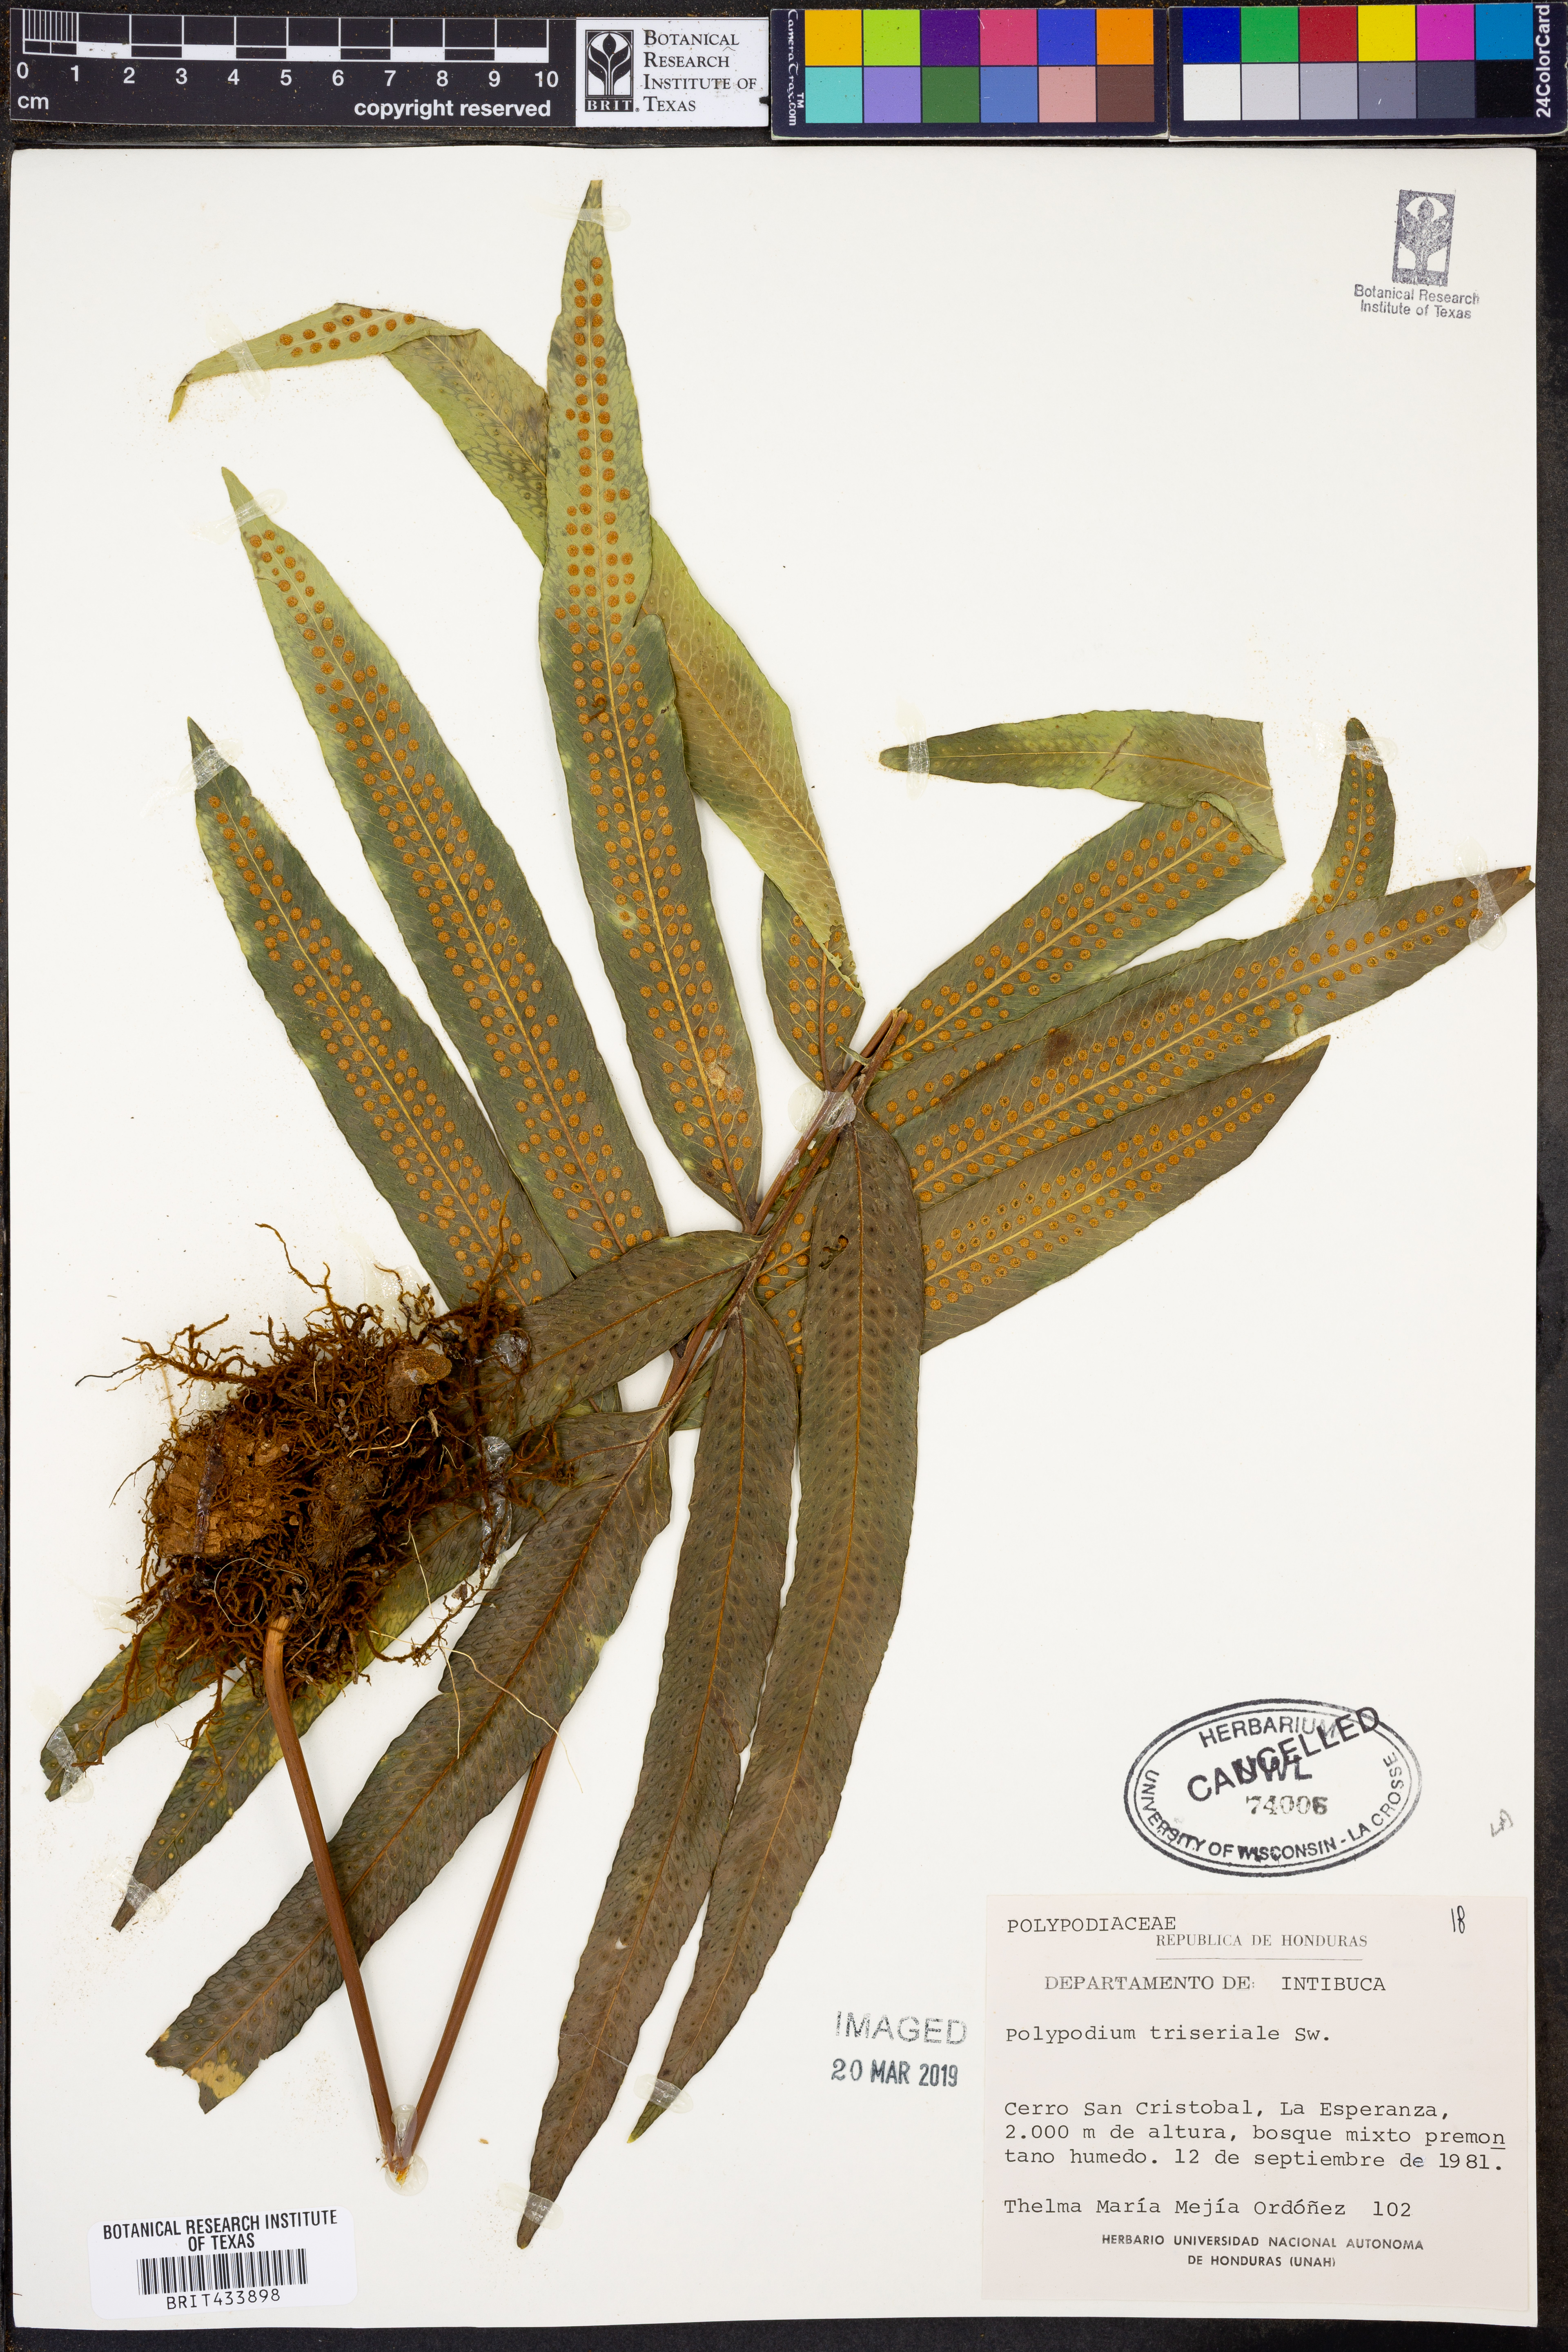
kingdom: Plantae
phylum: Tracheophyta
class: Polypodiopsida
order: Polypodiales
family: Polypodiaceae
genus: Serpocaulon
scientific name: Serpocaulon triseriale
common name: Angle-vein fern
